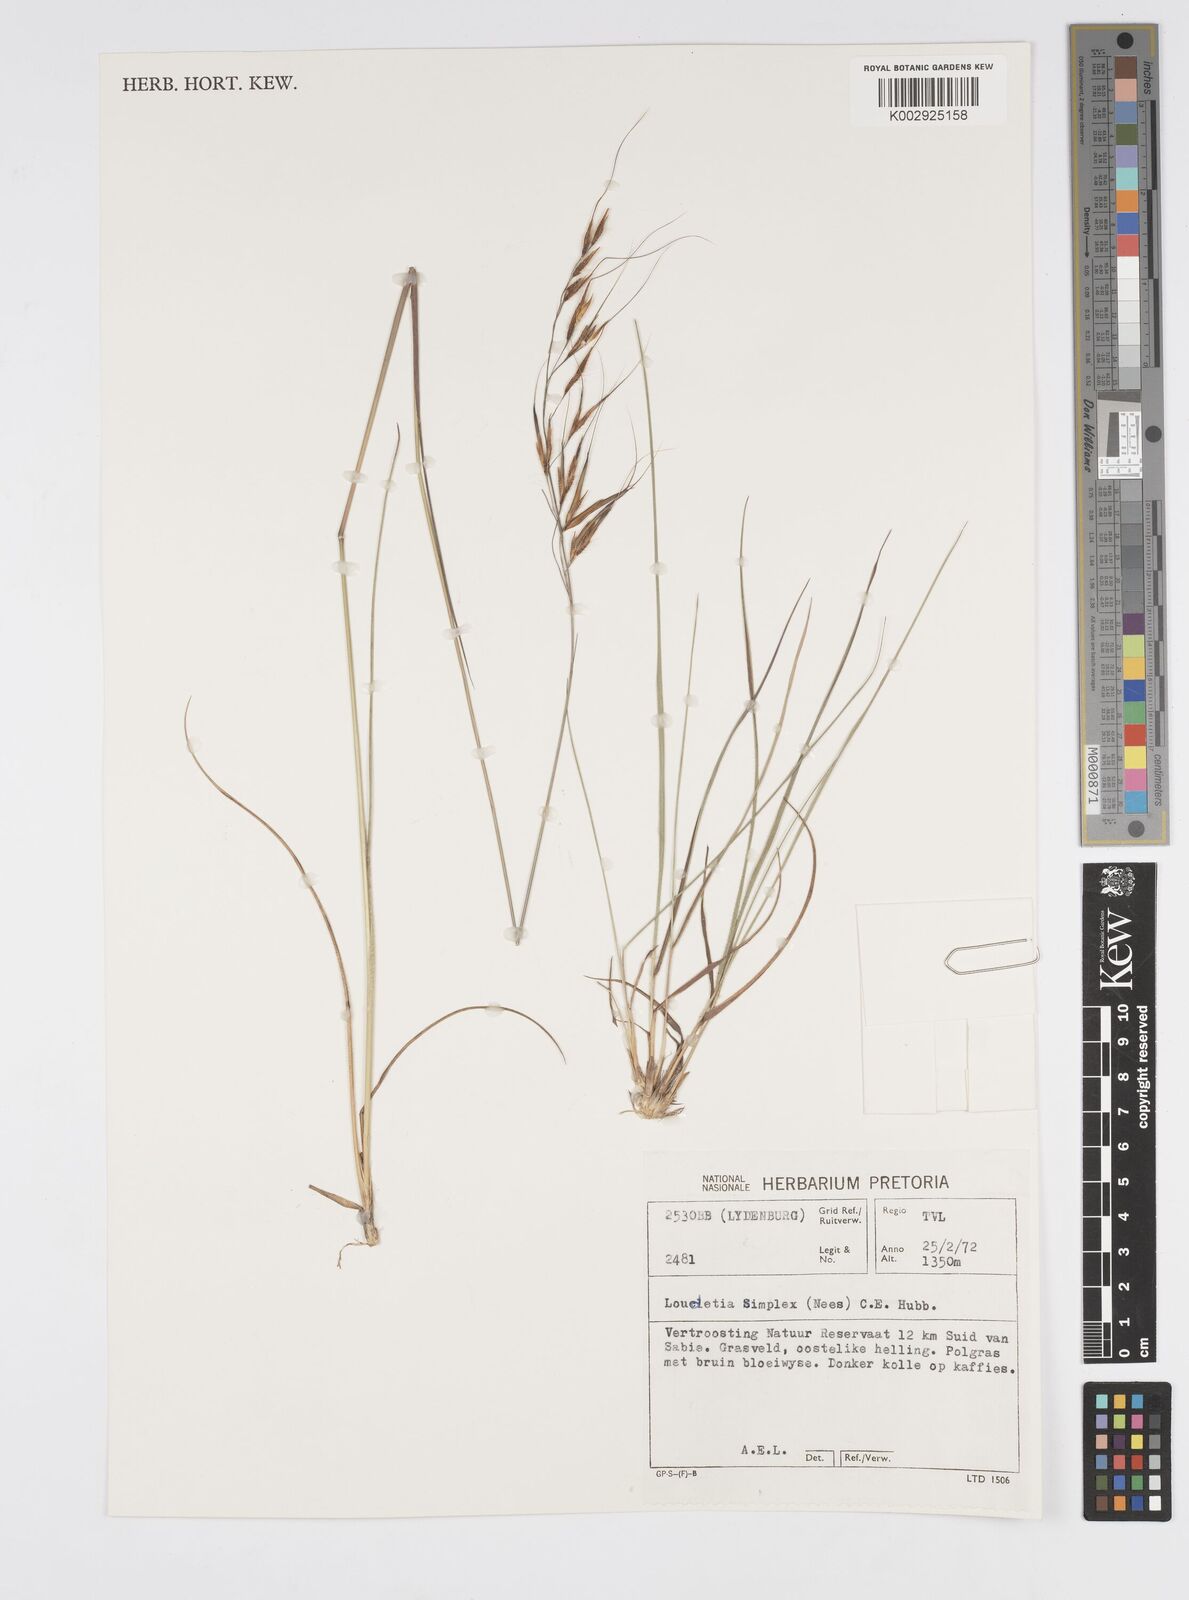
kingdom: Plantae
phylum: Tracheophyta
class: Liliopsida
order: Poales
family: Poaceae
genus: Loudetia
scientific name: Loudetia simplex
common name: Common russet grass
